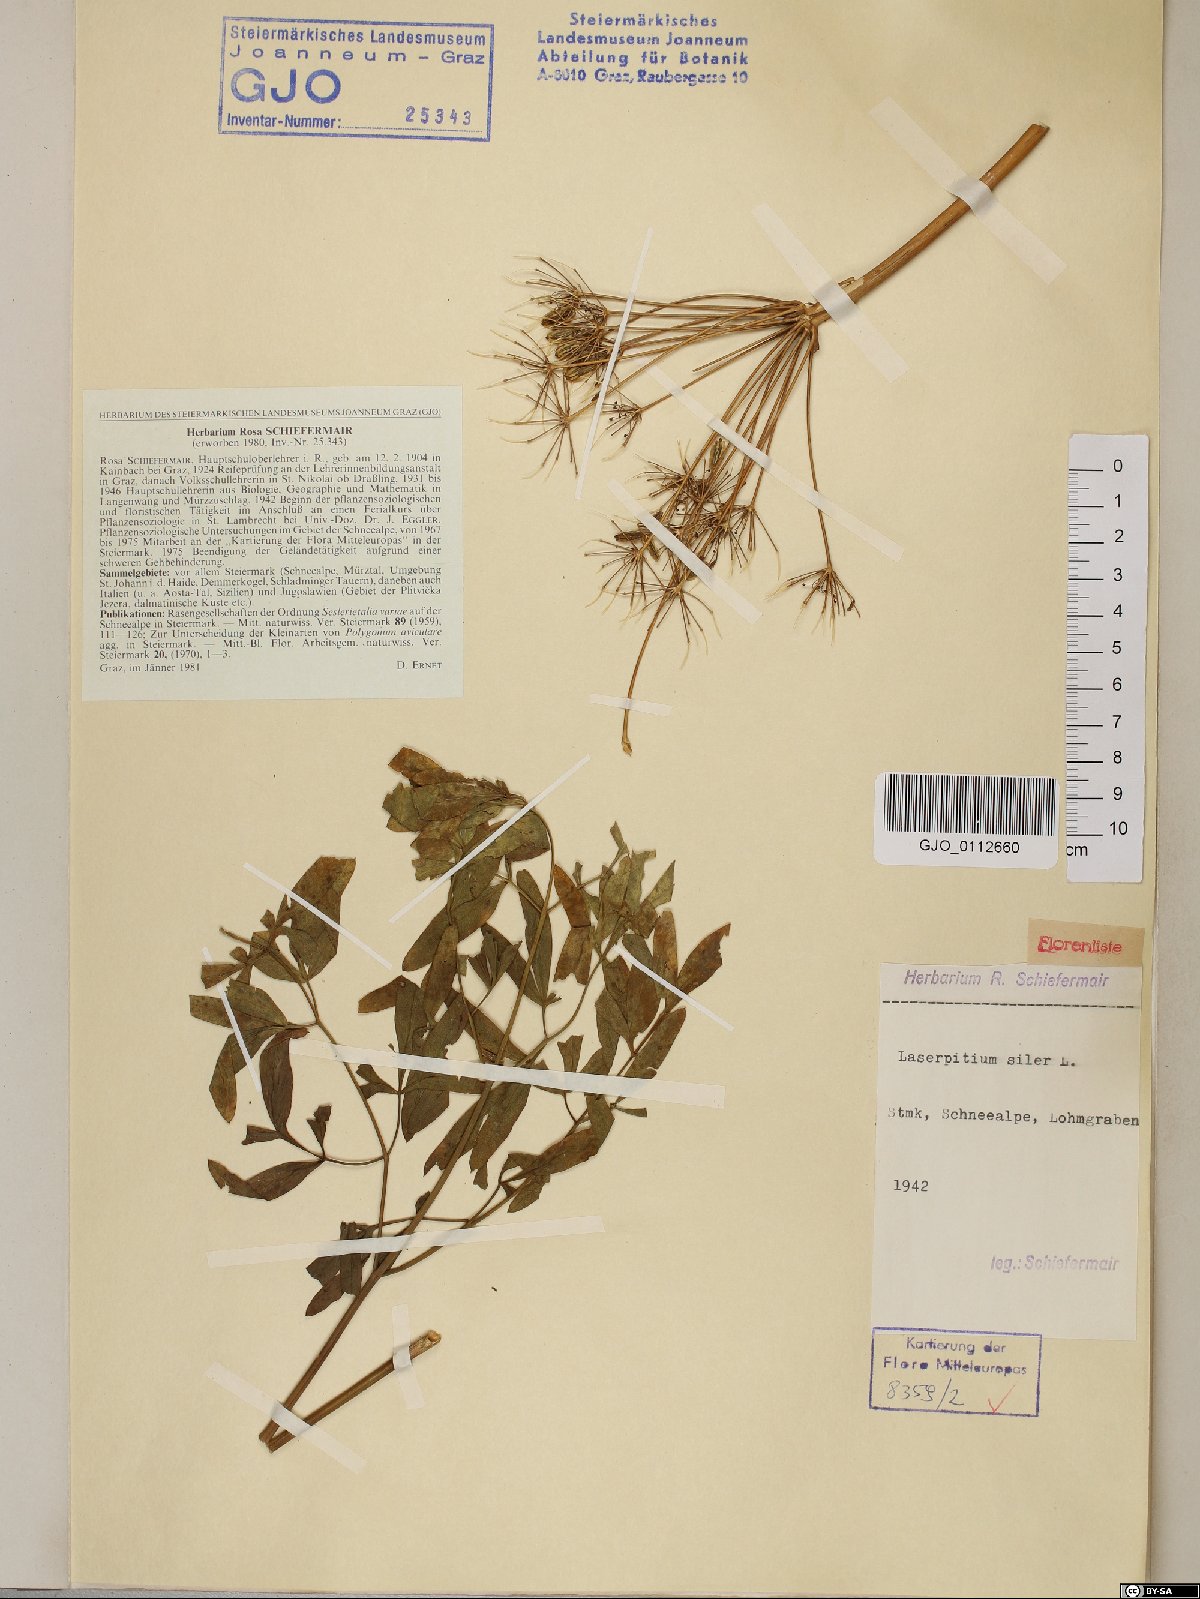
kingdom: Plantae
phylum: Tracheophyta
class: Magnoliopsida
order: Apiales
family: Apiaceae
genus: Siler
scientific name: Siler montanum
